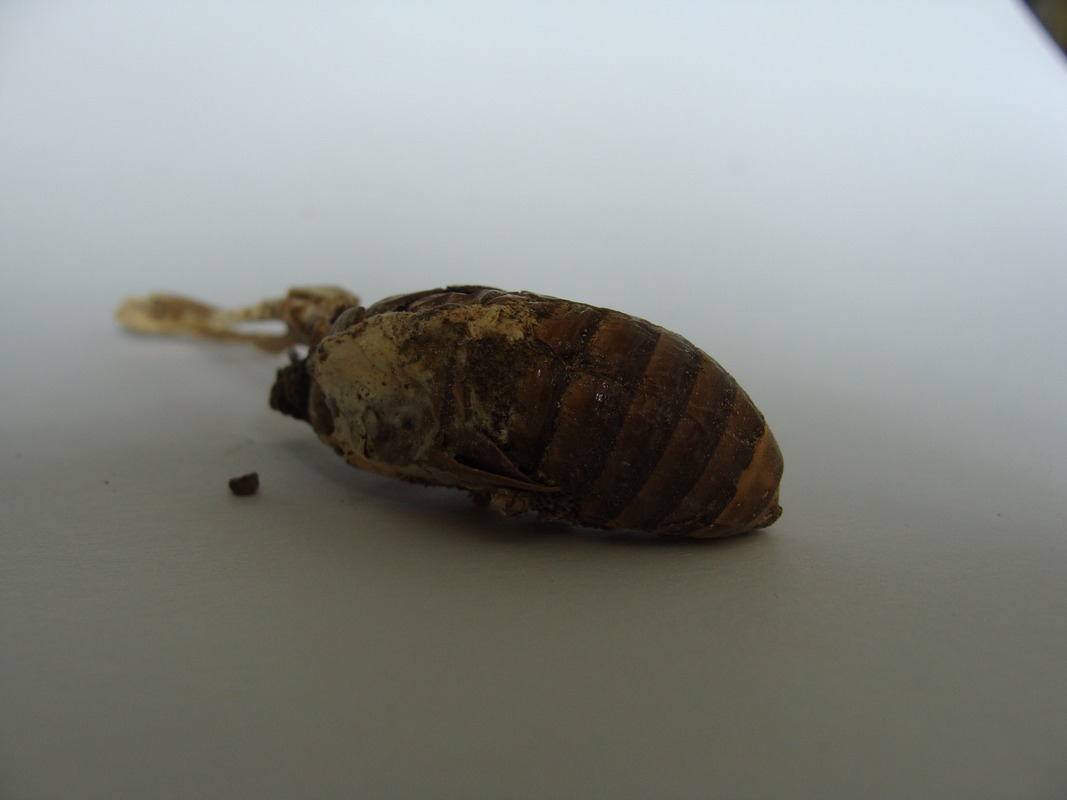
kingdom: Fungi
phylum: Ascomycota
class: Sordariomycetes
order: Hypocreales
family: Cordycipitaceae
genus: Isaria
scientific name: Isaria
